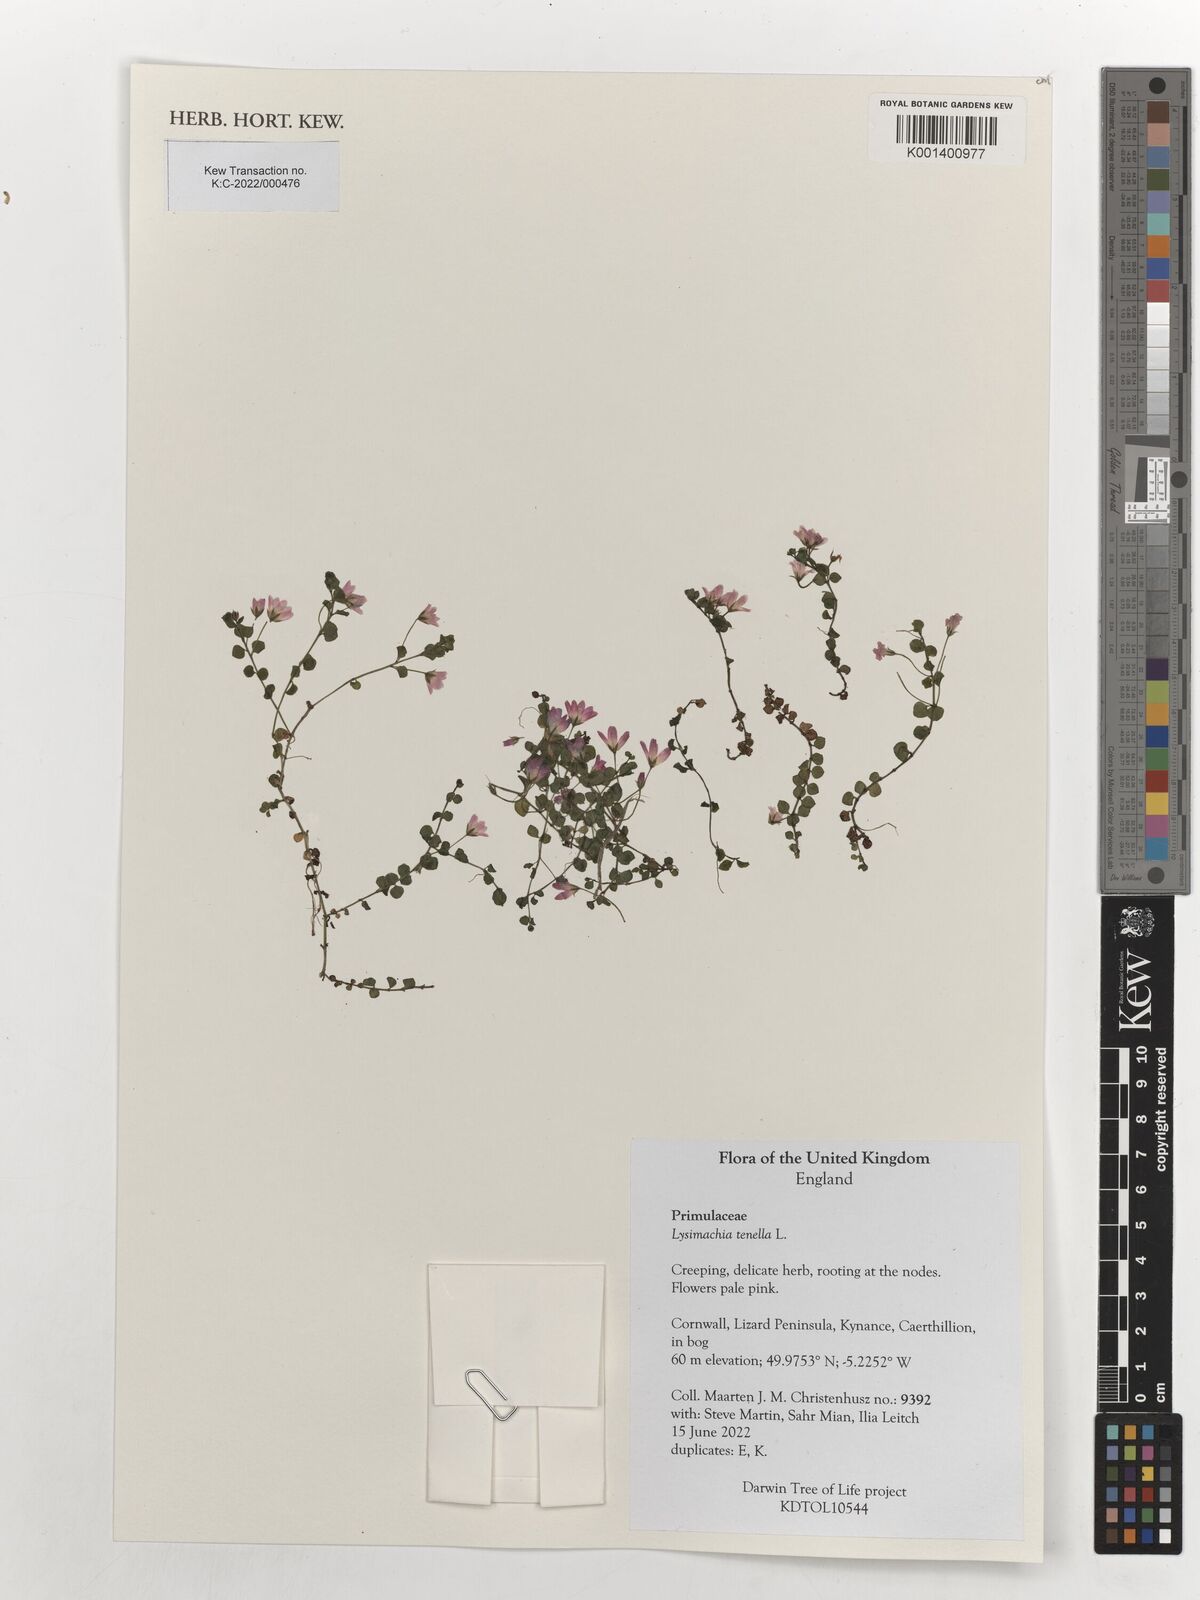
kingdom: Plantae
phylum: Tracheophyta
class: Magnoliopsida
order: Ericales
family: Primulaceae
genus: Lysimachia
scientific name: Lysimachia tenella
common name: European bog pimpernel
